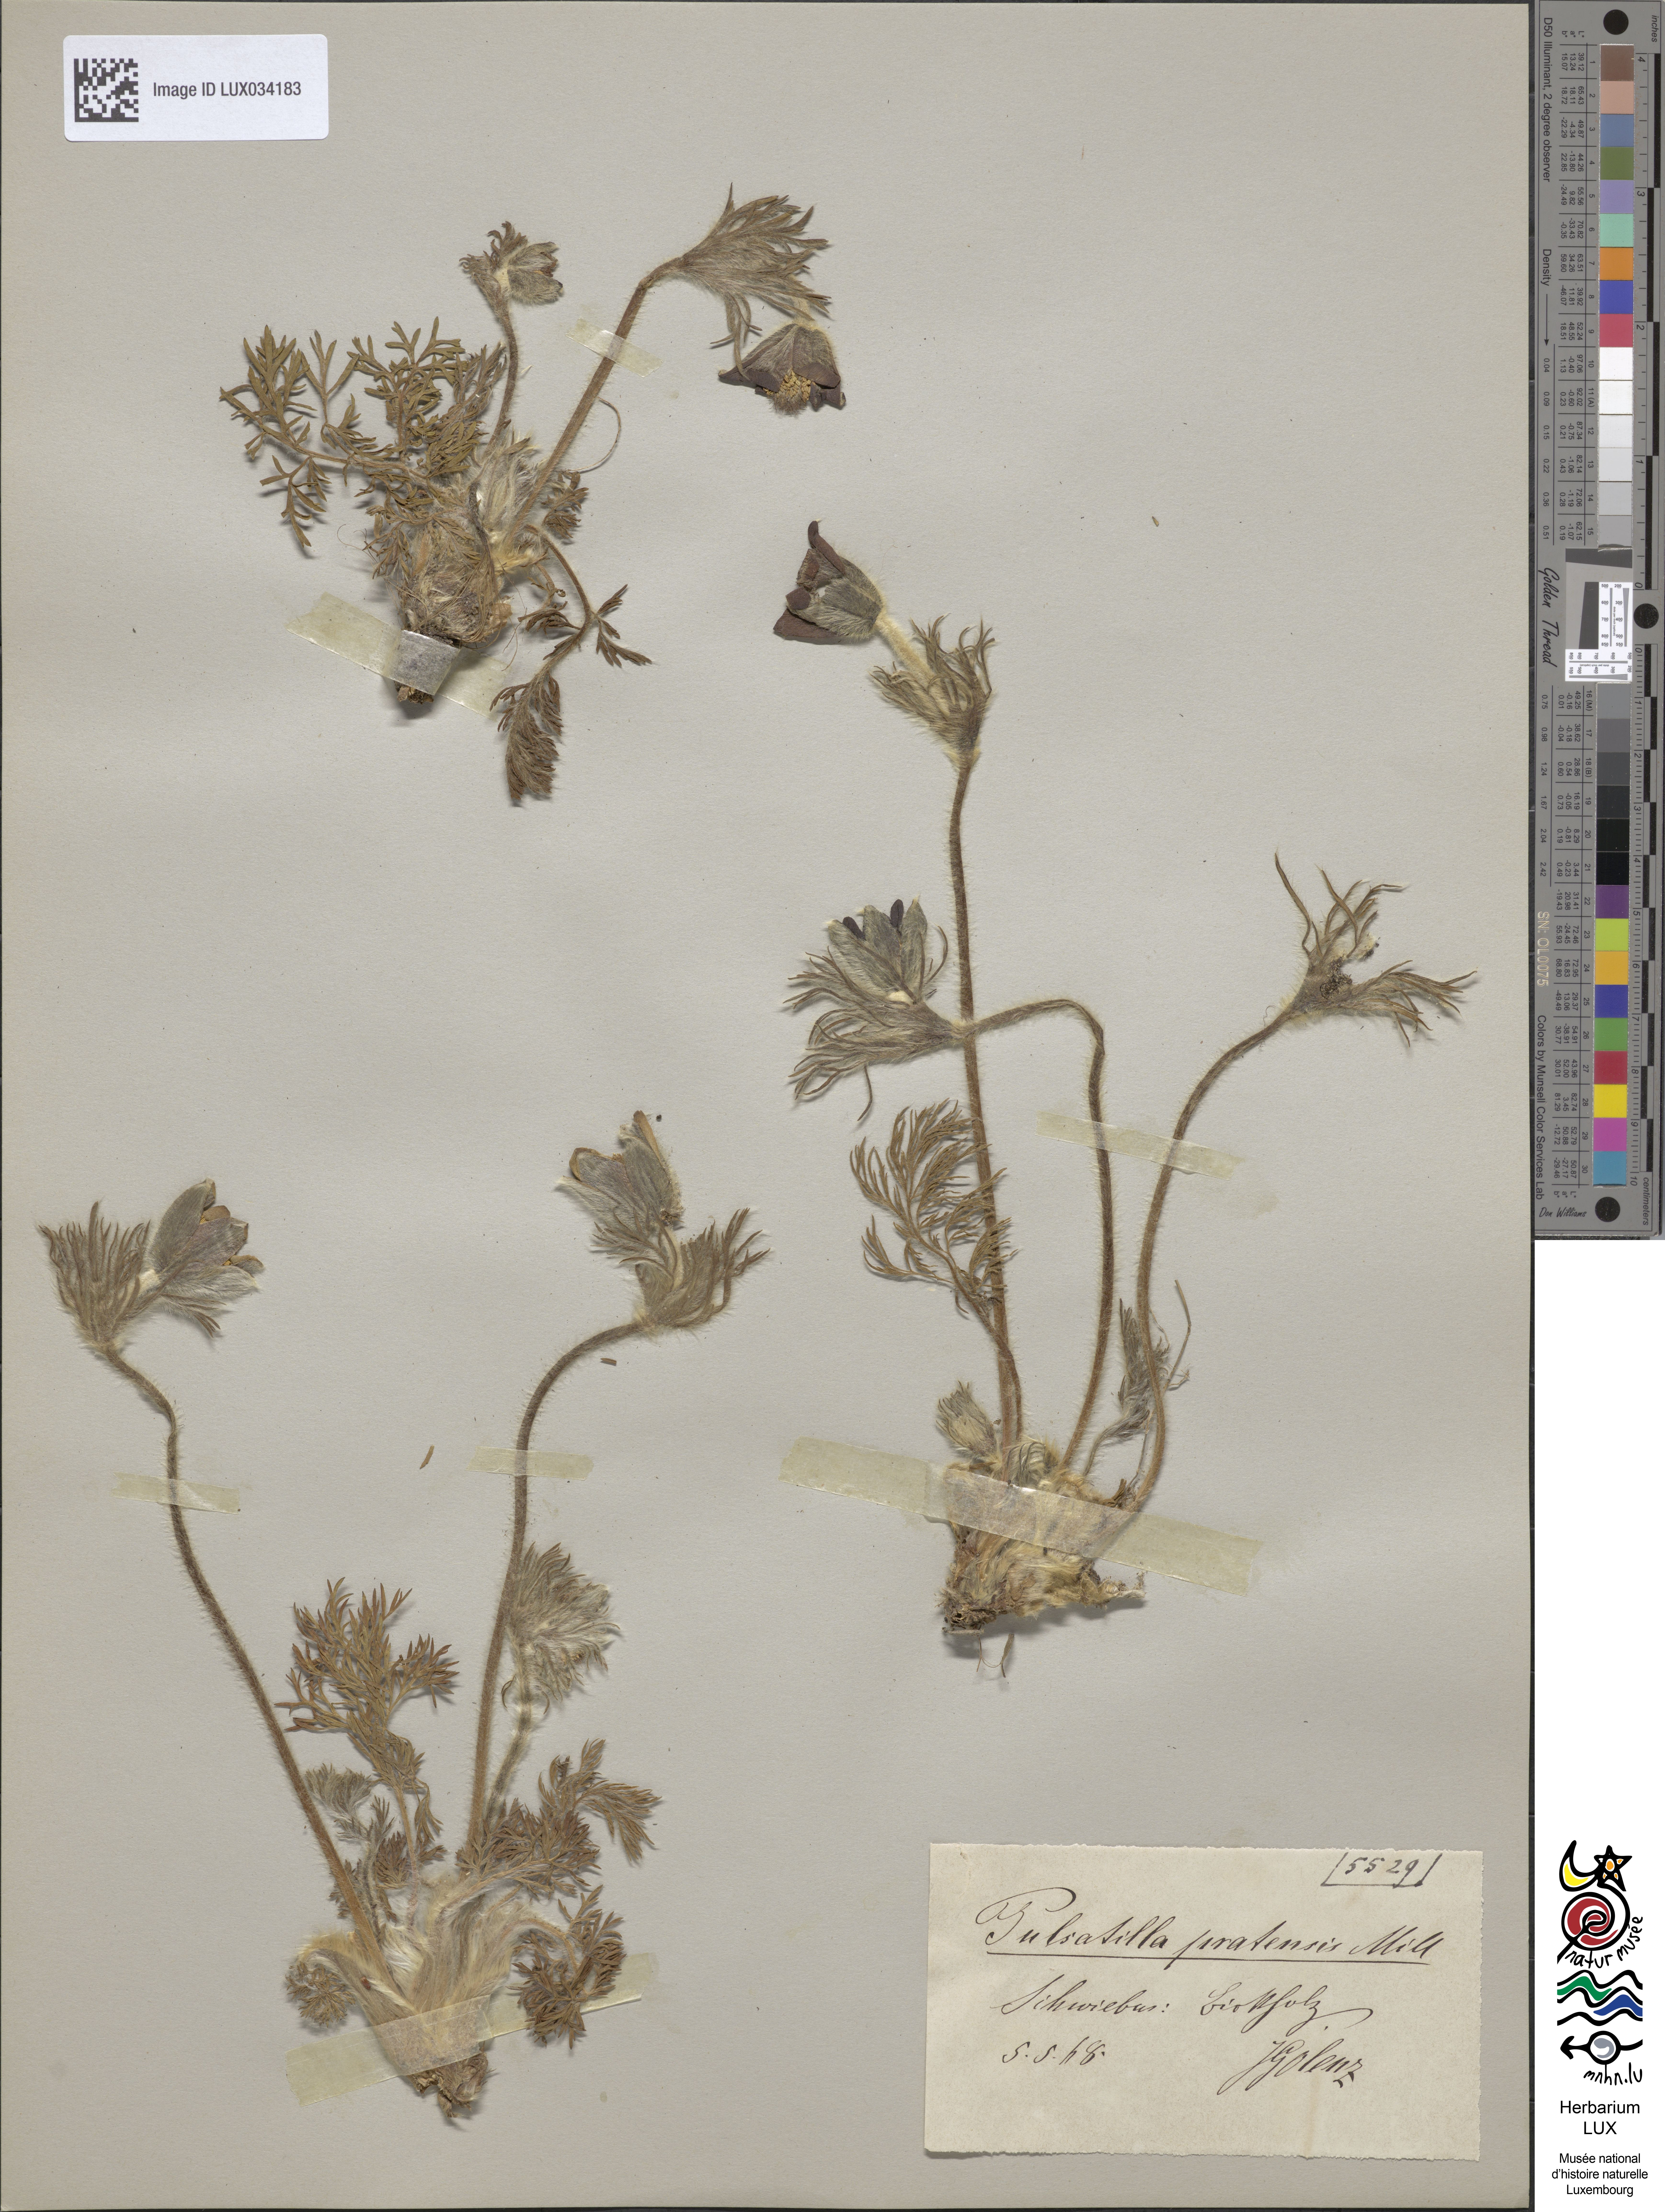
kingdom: Plantae
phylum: Tracheophyta
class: Magnoliopsida
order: Ranunculales
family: Ranunculaceae
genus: Pulsatilla
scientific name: Pulsatilla pratensis
